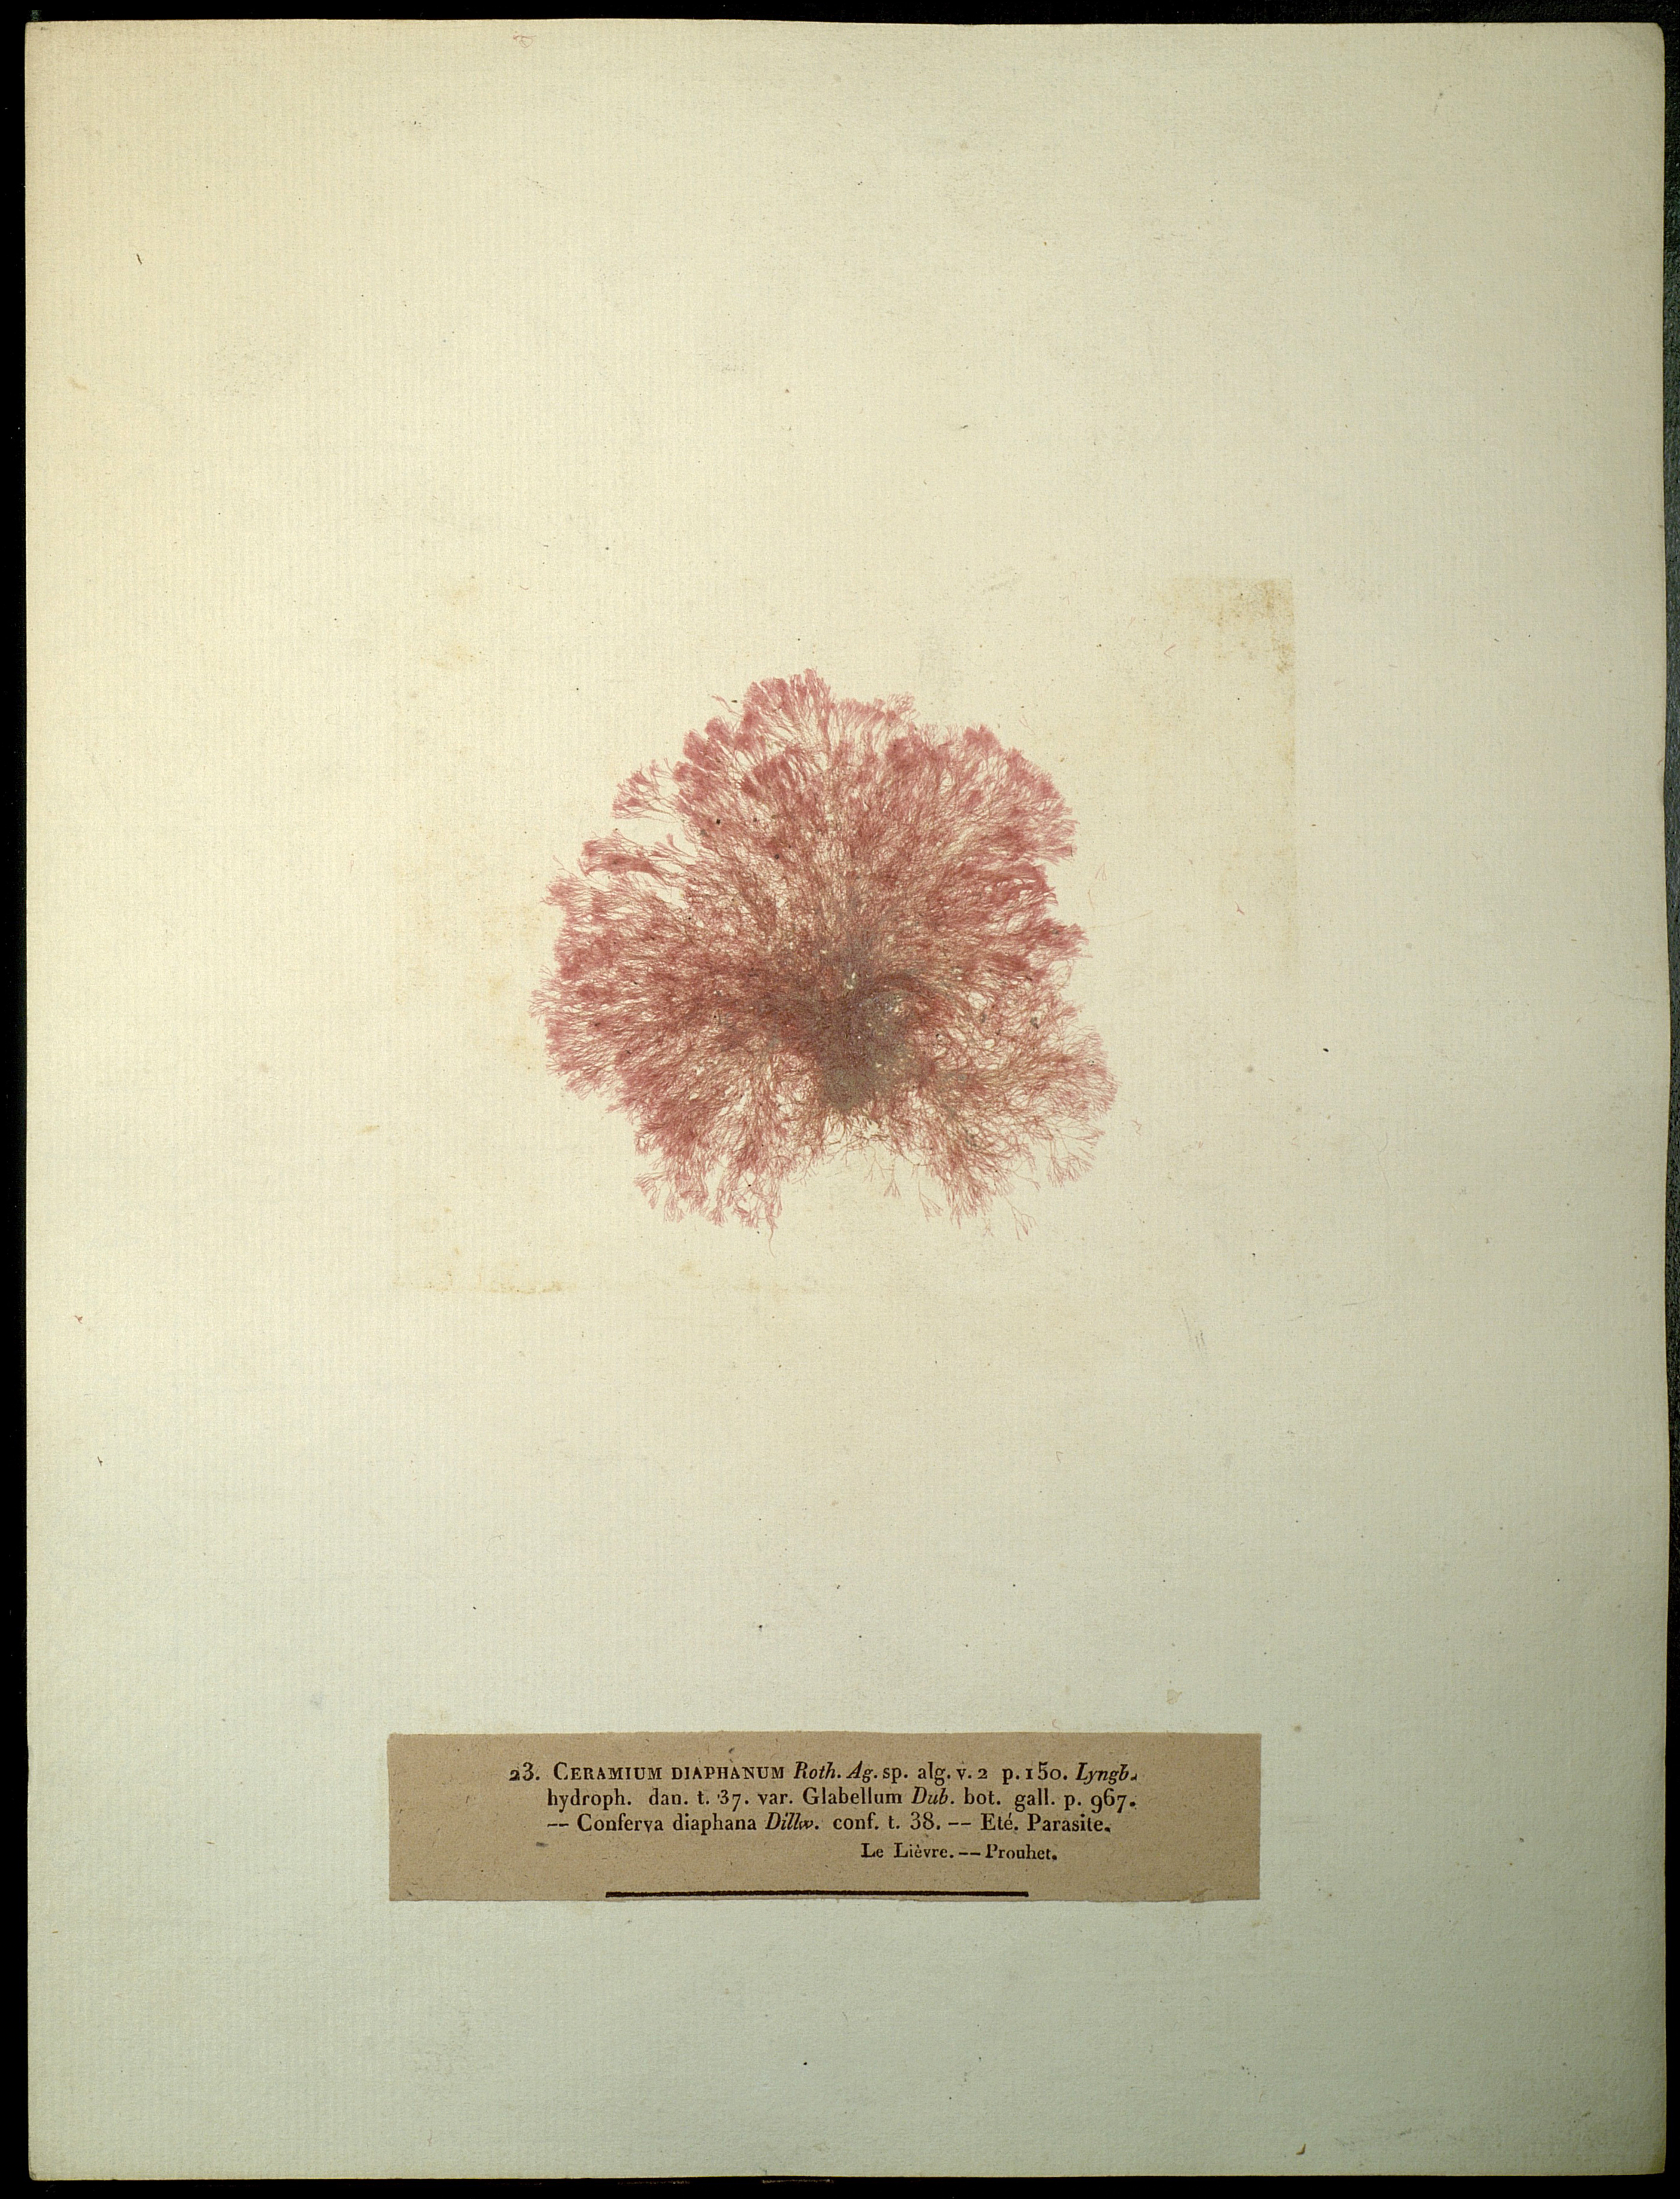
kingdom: Plantae
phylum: Rhodophyta
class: Florideophyceae
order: Ceramiales
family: Ceramiaceae
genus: Ceramium
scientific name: Ceramium diaphanum
